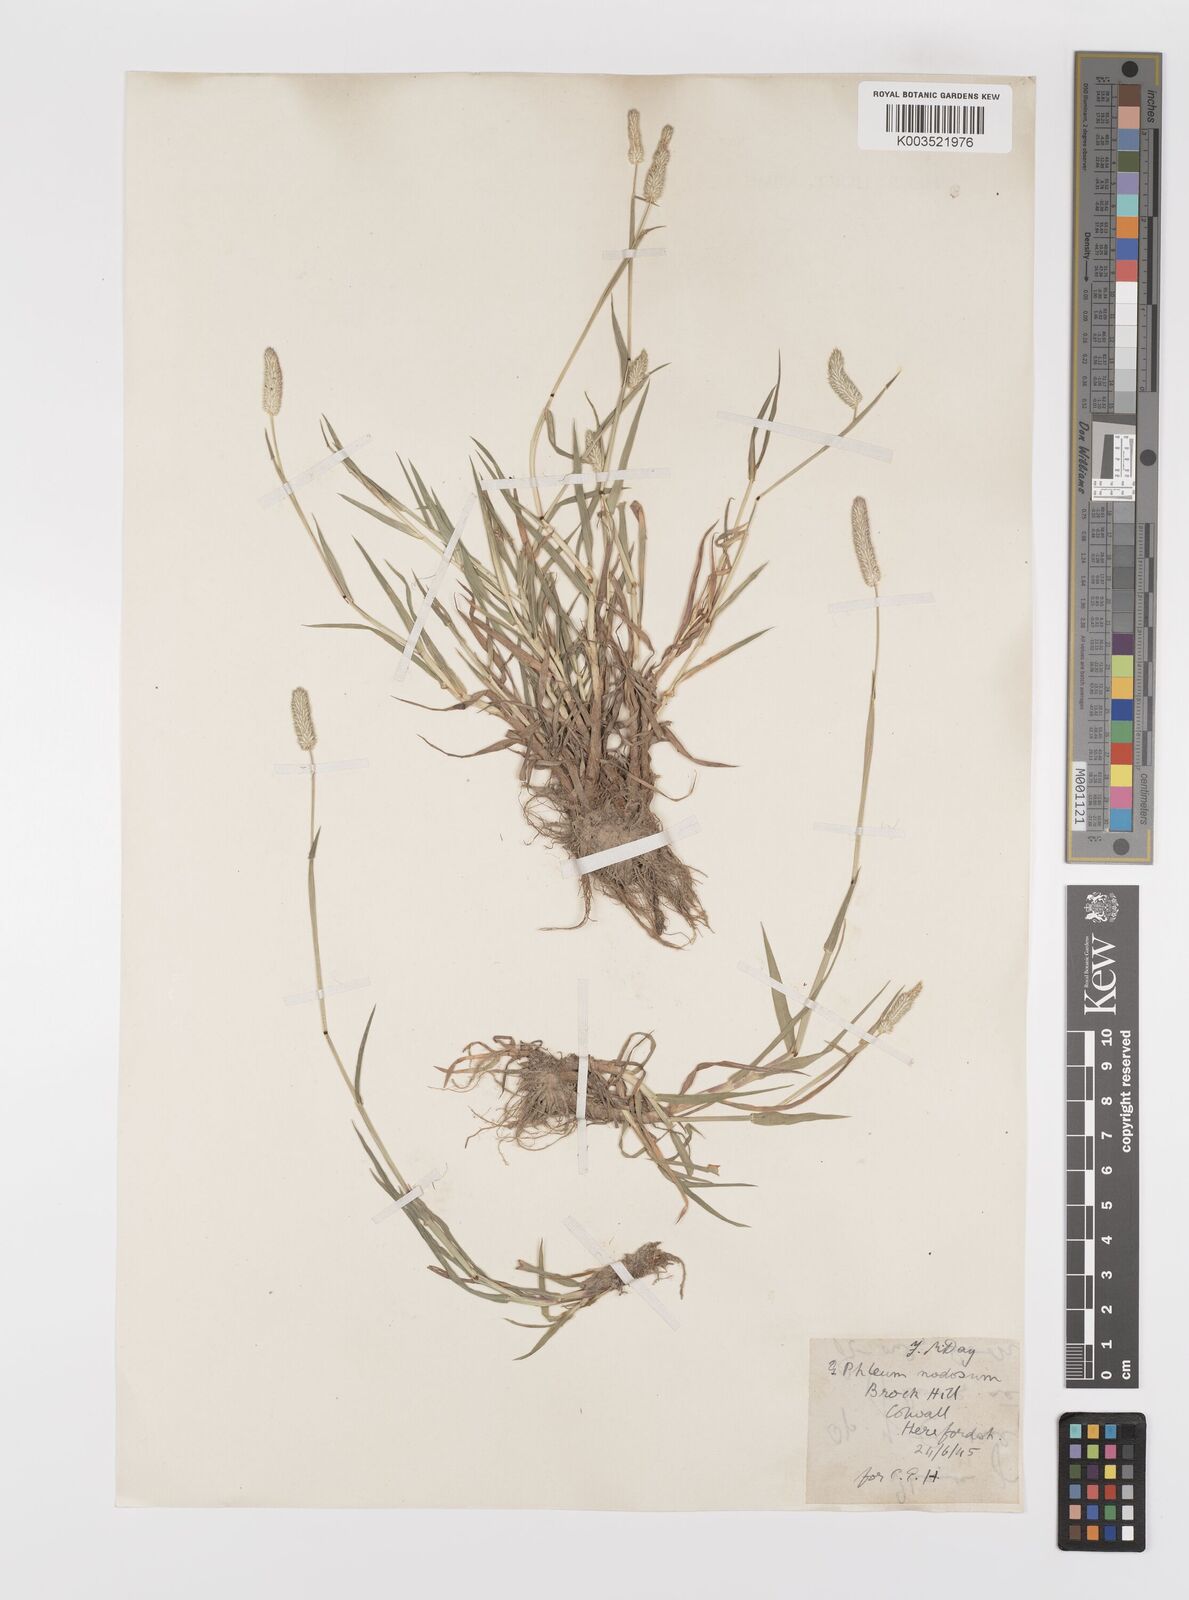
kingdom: Plantae
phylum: Tracheophyta
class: Liliopsida
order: Poales
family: Poaceae
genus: Phleum
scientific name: Phleum bertolonii
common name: Smaller cat's-tail
